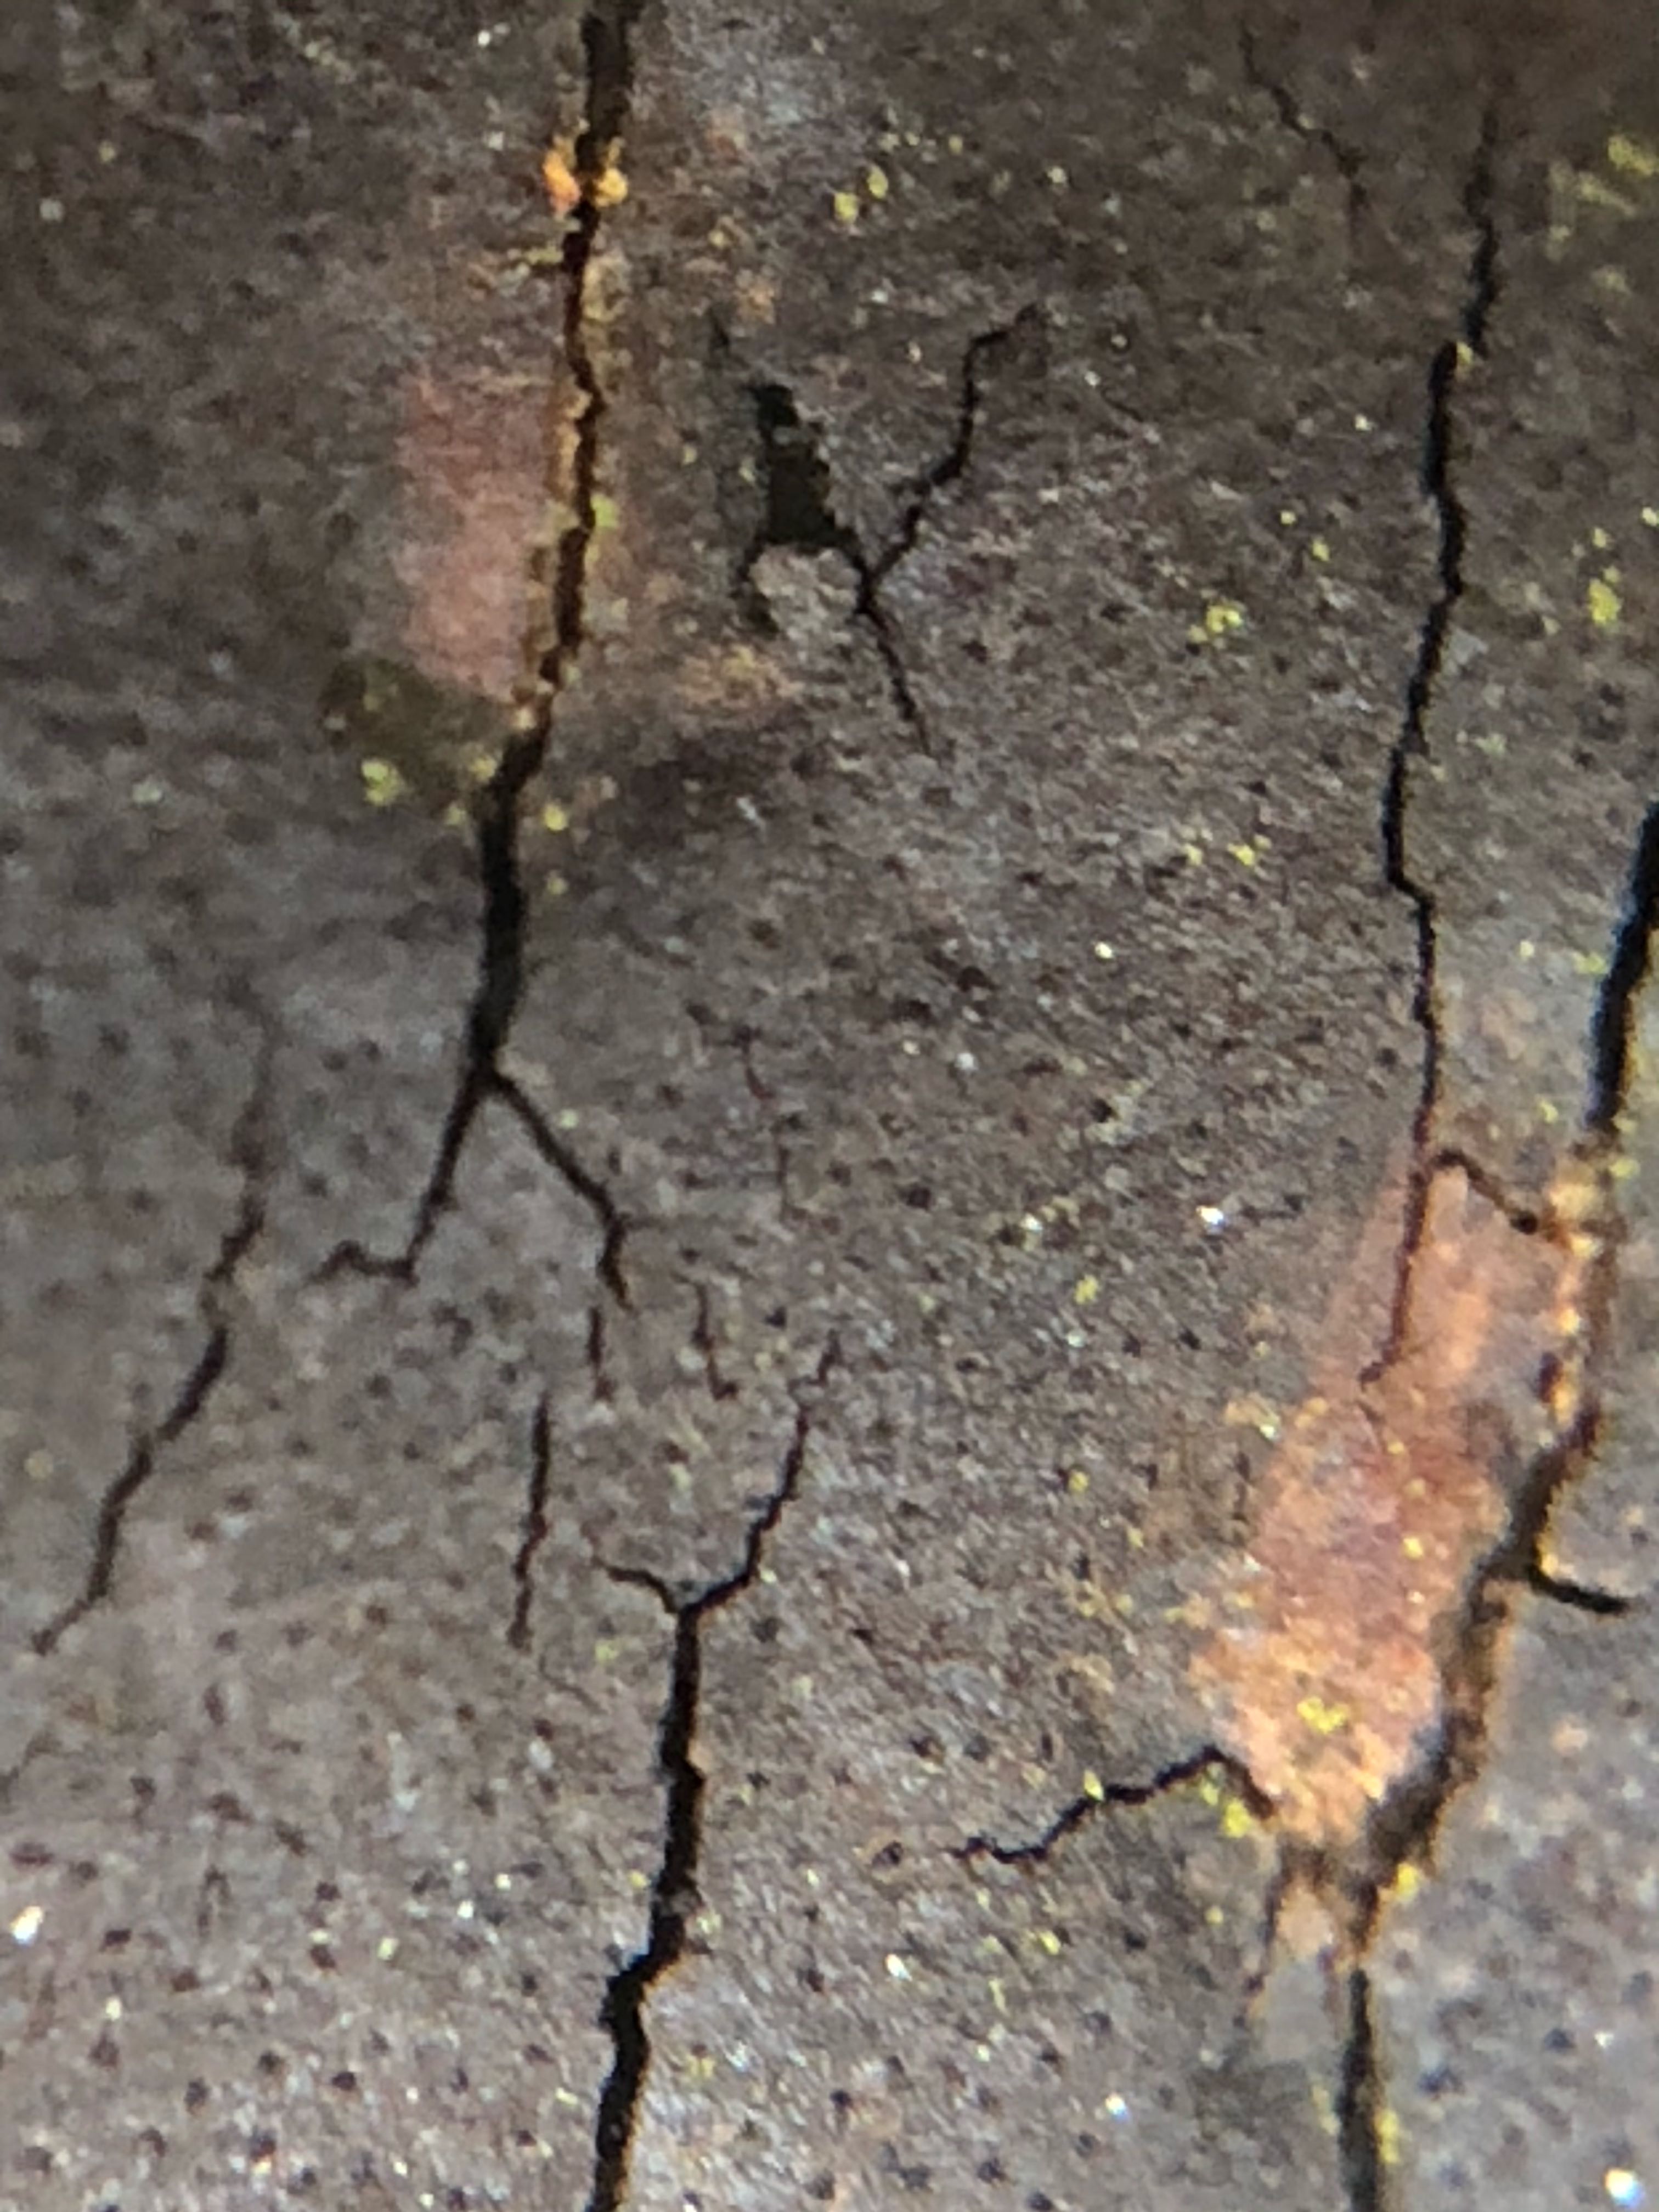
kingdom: Fungi
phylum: Ascomycota
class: Sordariomycetes
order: Xylariales
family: Diatrypaceae
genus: Diatrype
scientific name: Diatrype decorticata
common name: barksprænger-kulskorpe
